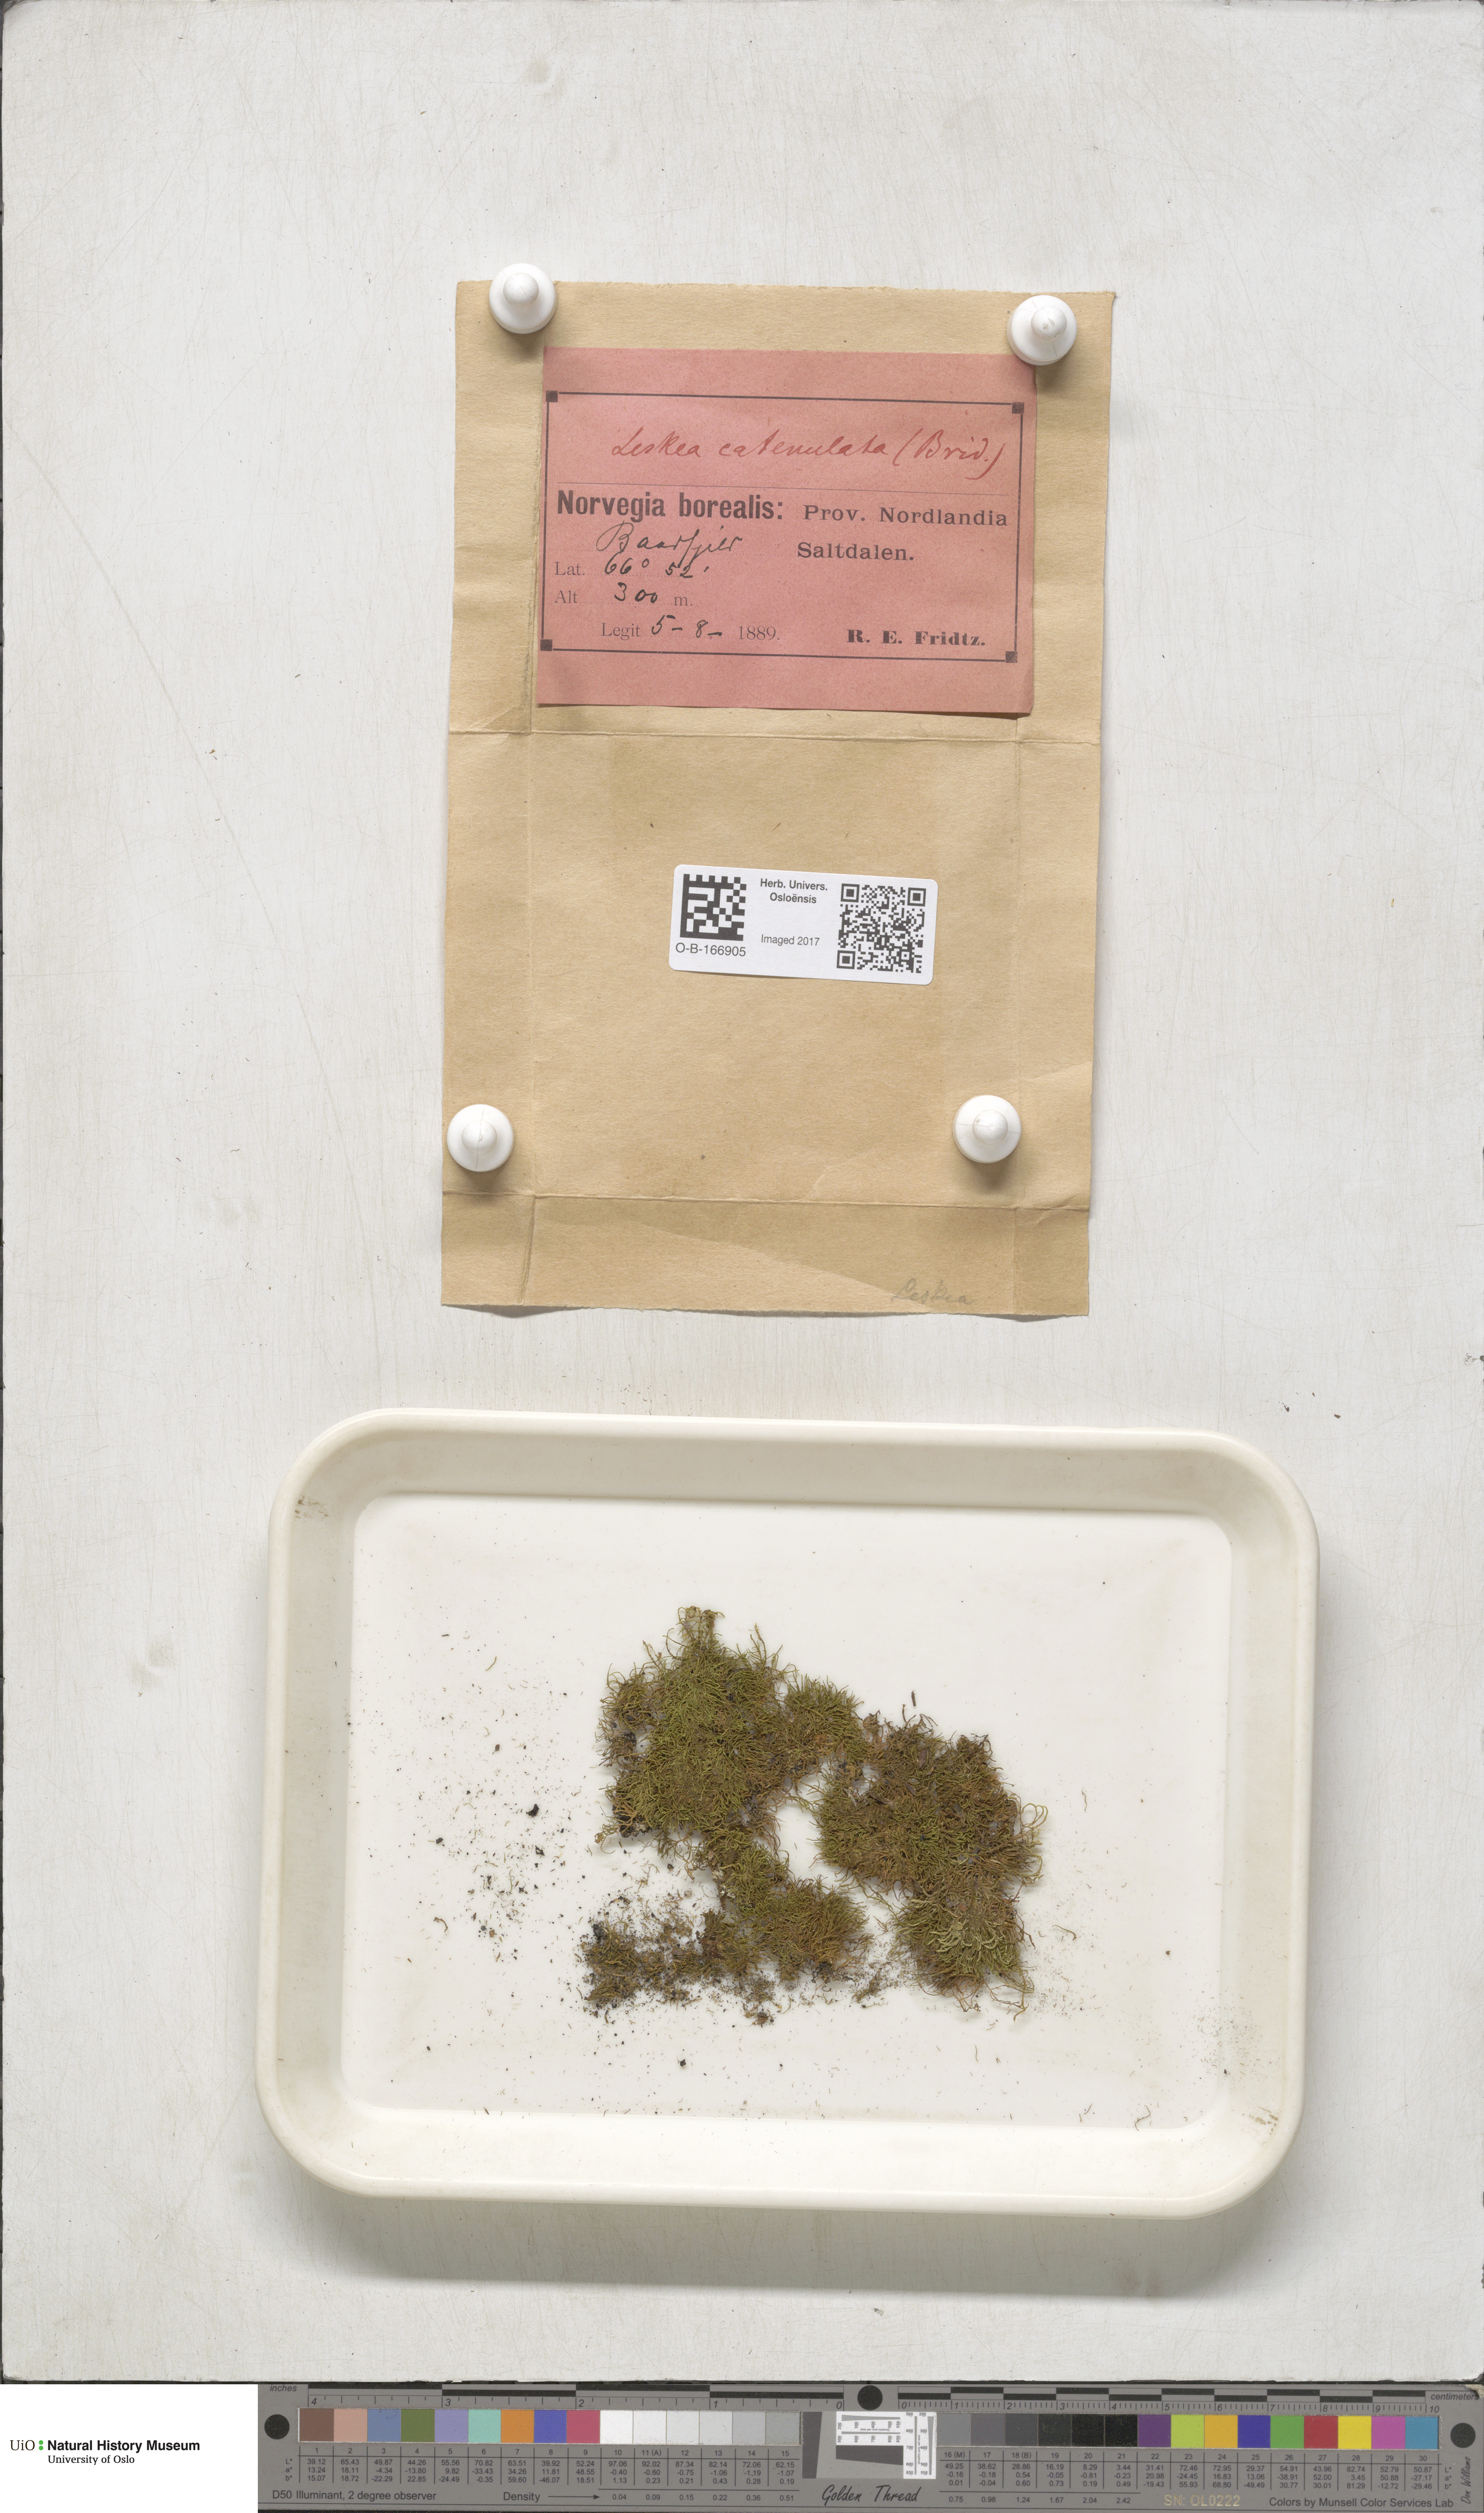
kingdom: Plantae
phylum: Bryophyta
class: Bryopsida
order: Hypnales
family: Pseudoleskeellaceae
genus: Pseudoleskeella
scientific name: Pseudoleskeella catenulata
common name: Chained leskea
